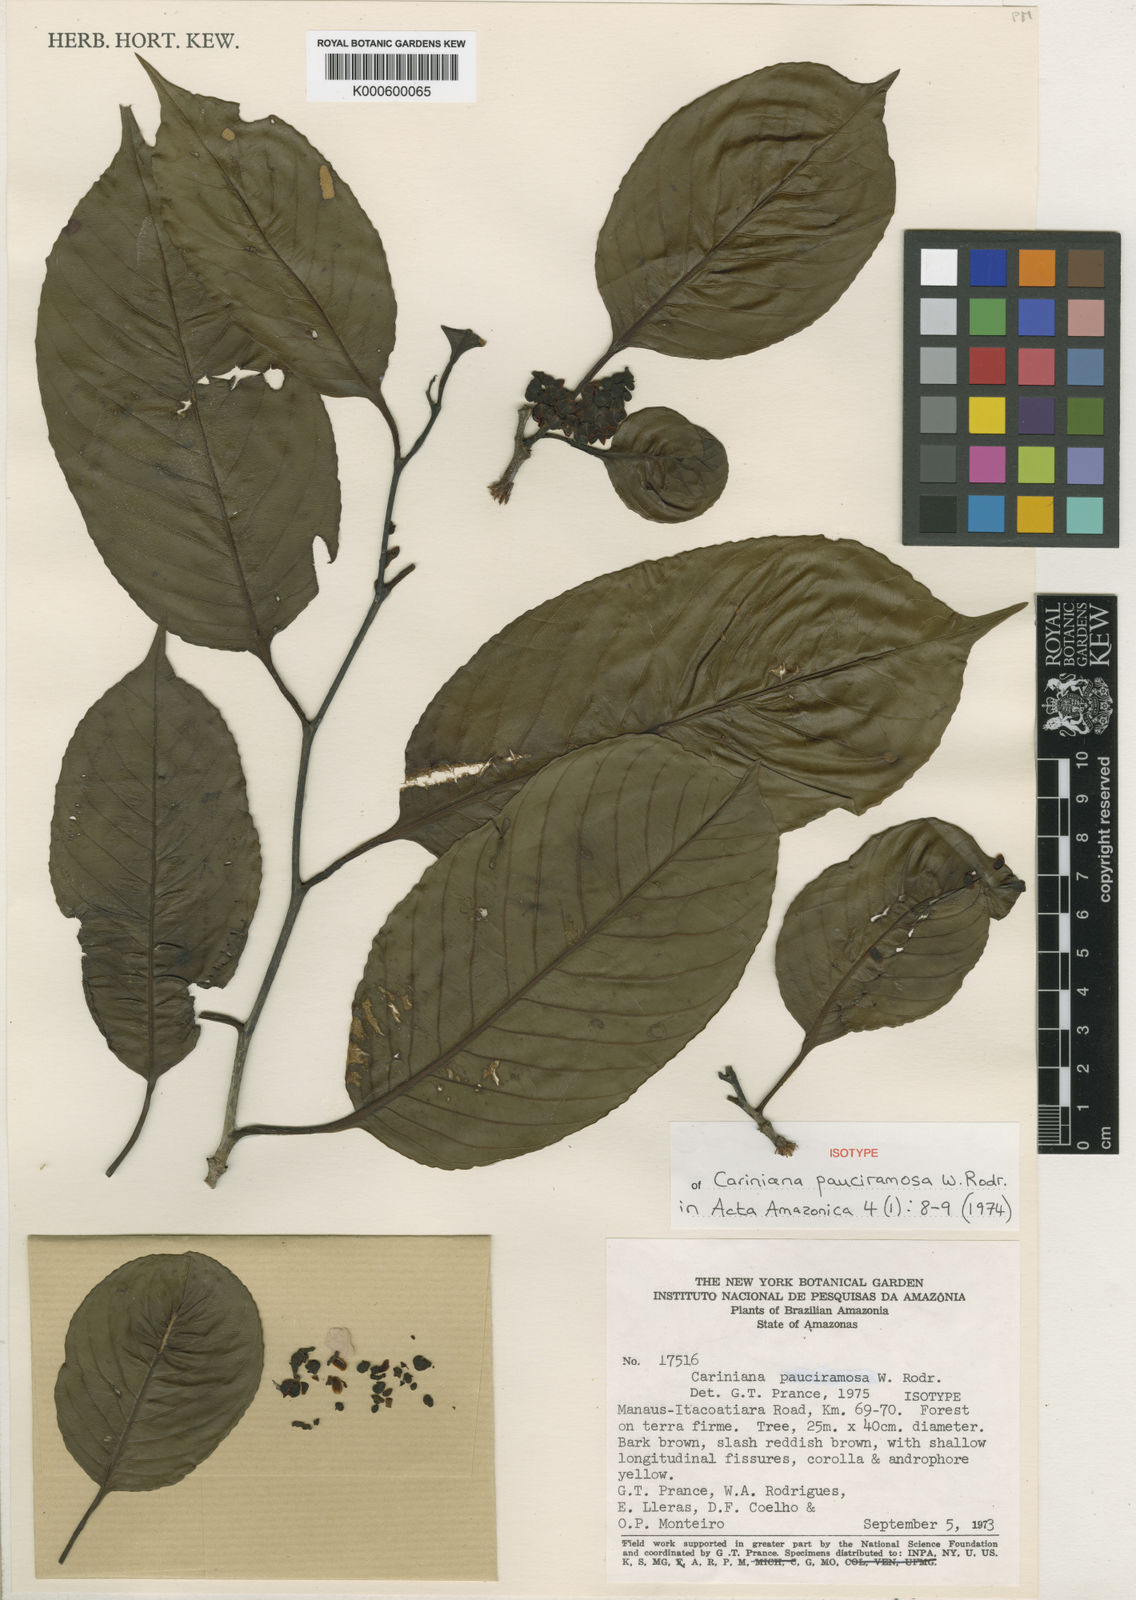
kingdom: Plantae
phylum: Tracheophyta
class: Magnoliopsida
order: Ericales
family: Lecythidaceae
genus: Allantoma
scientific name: Allantoma pauciramosa
